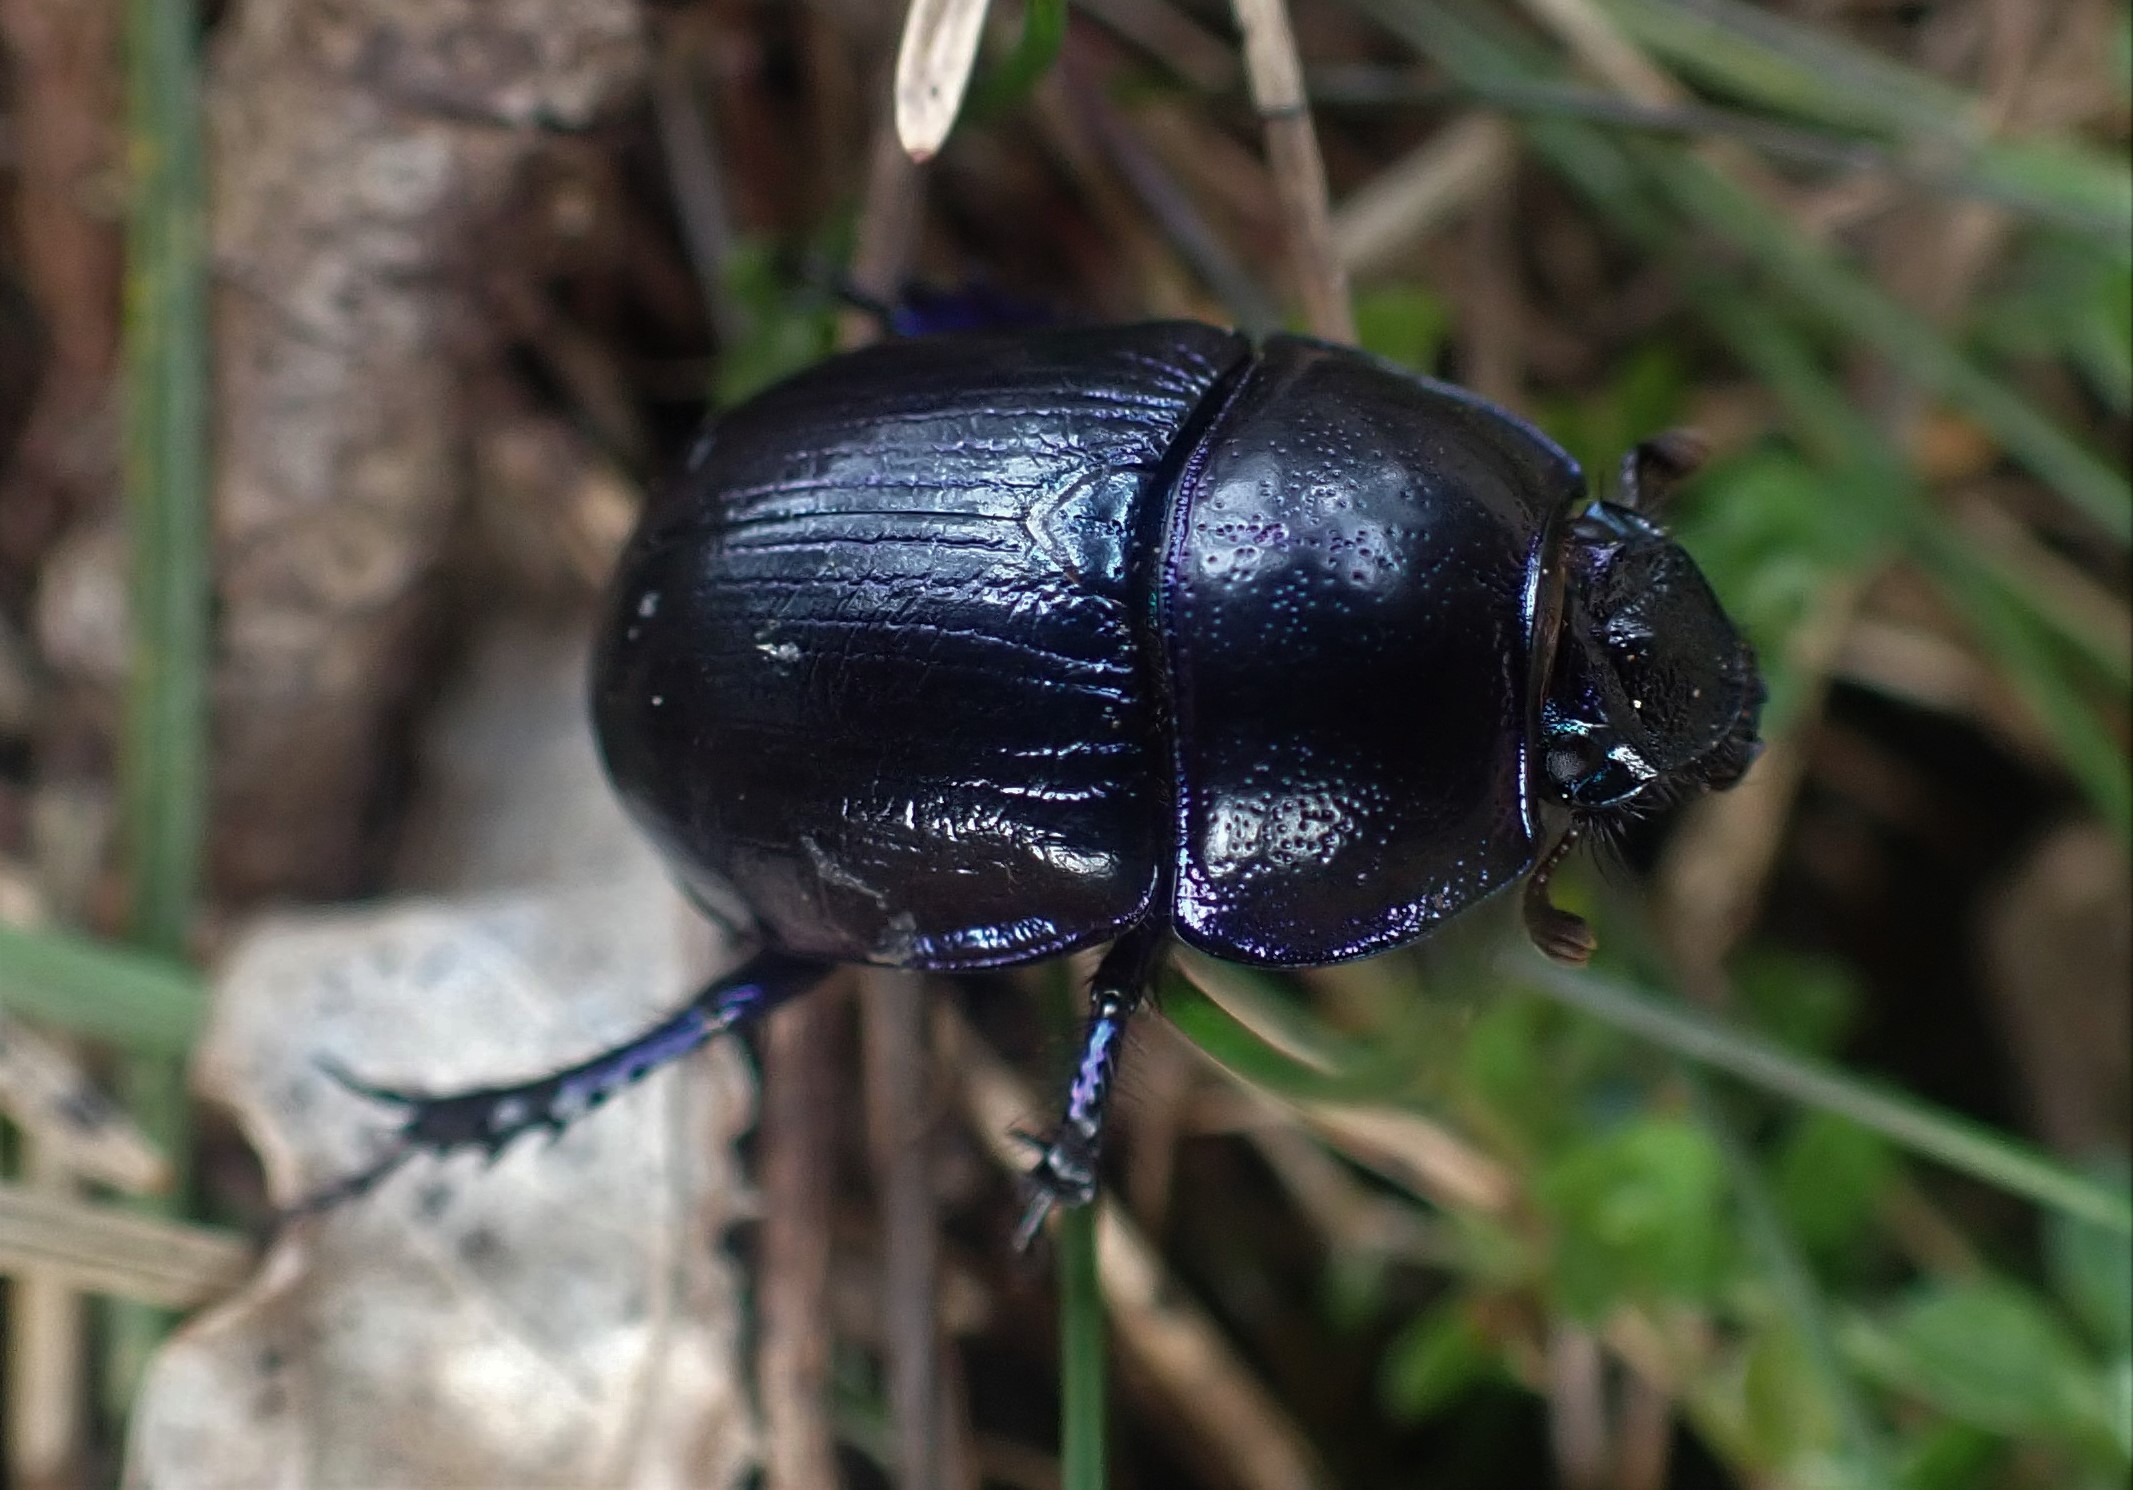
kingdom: Animalia
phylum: Arthropoda
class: Insecta
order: Coleoptera
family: Geotrupidae
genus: Anoplotrupes
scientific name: Anoplotrupes stercorosus
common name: Skovskarnbasse
